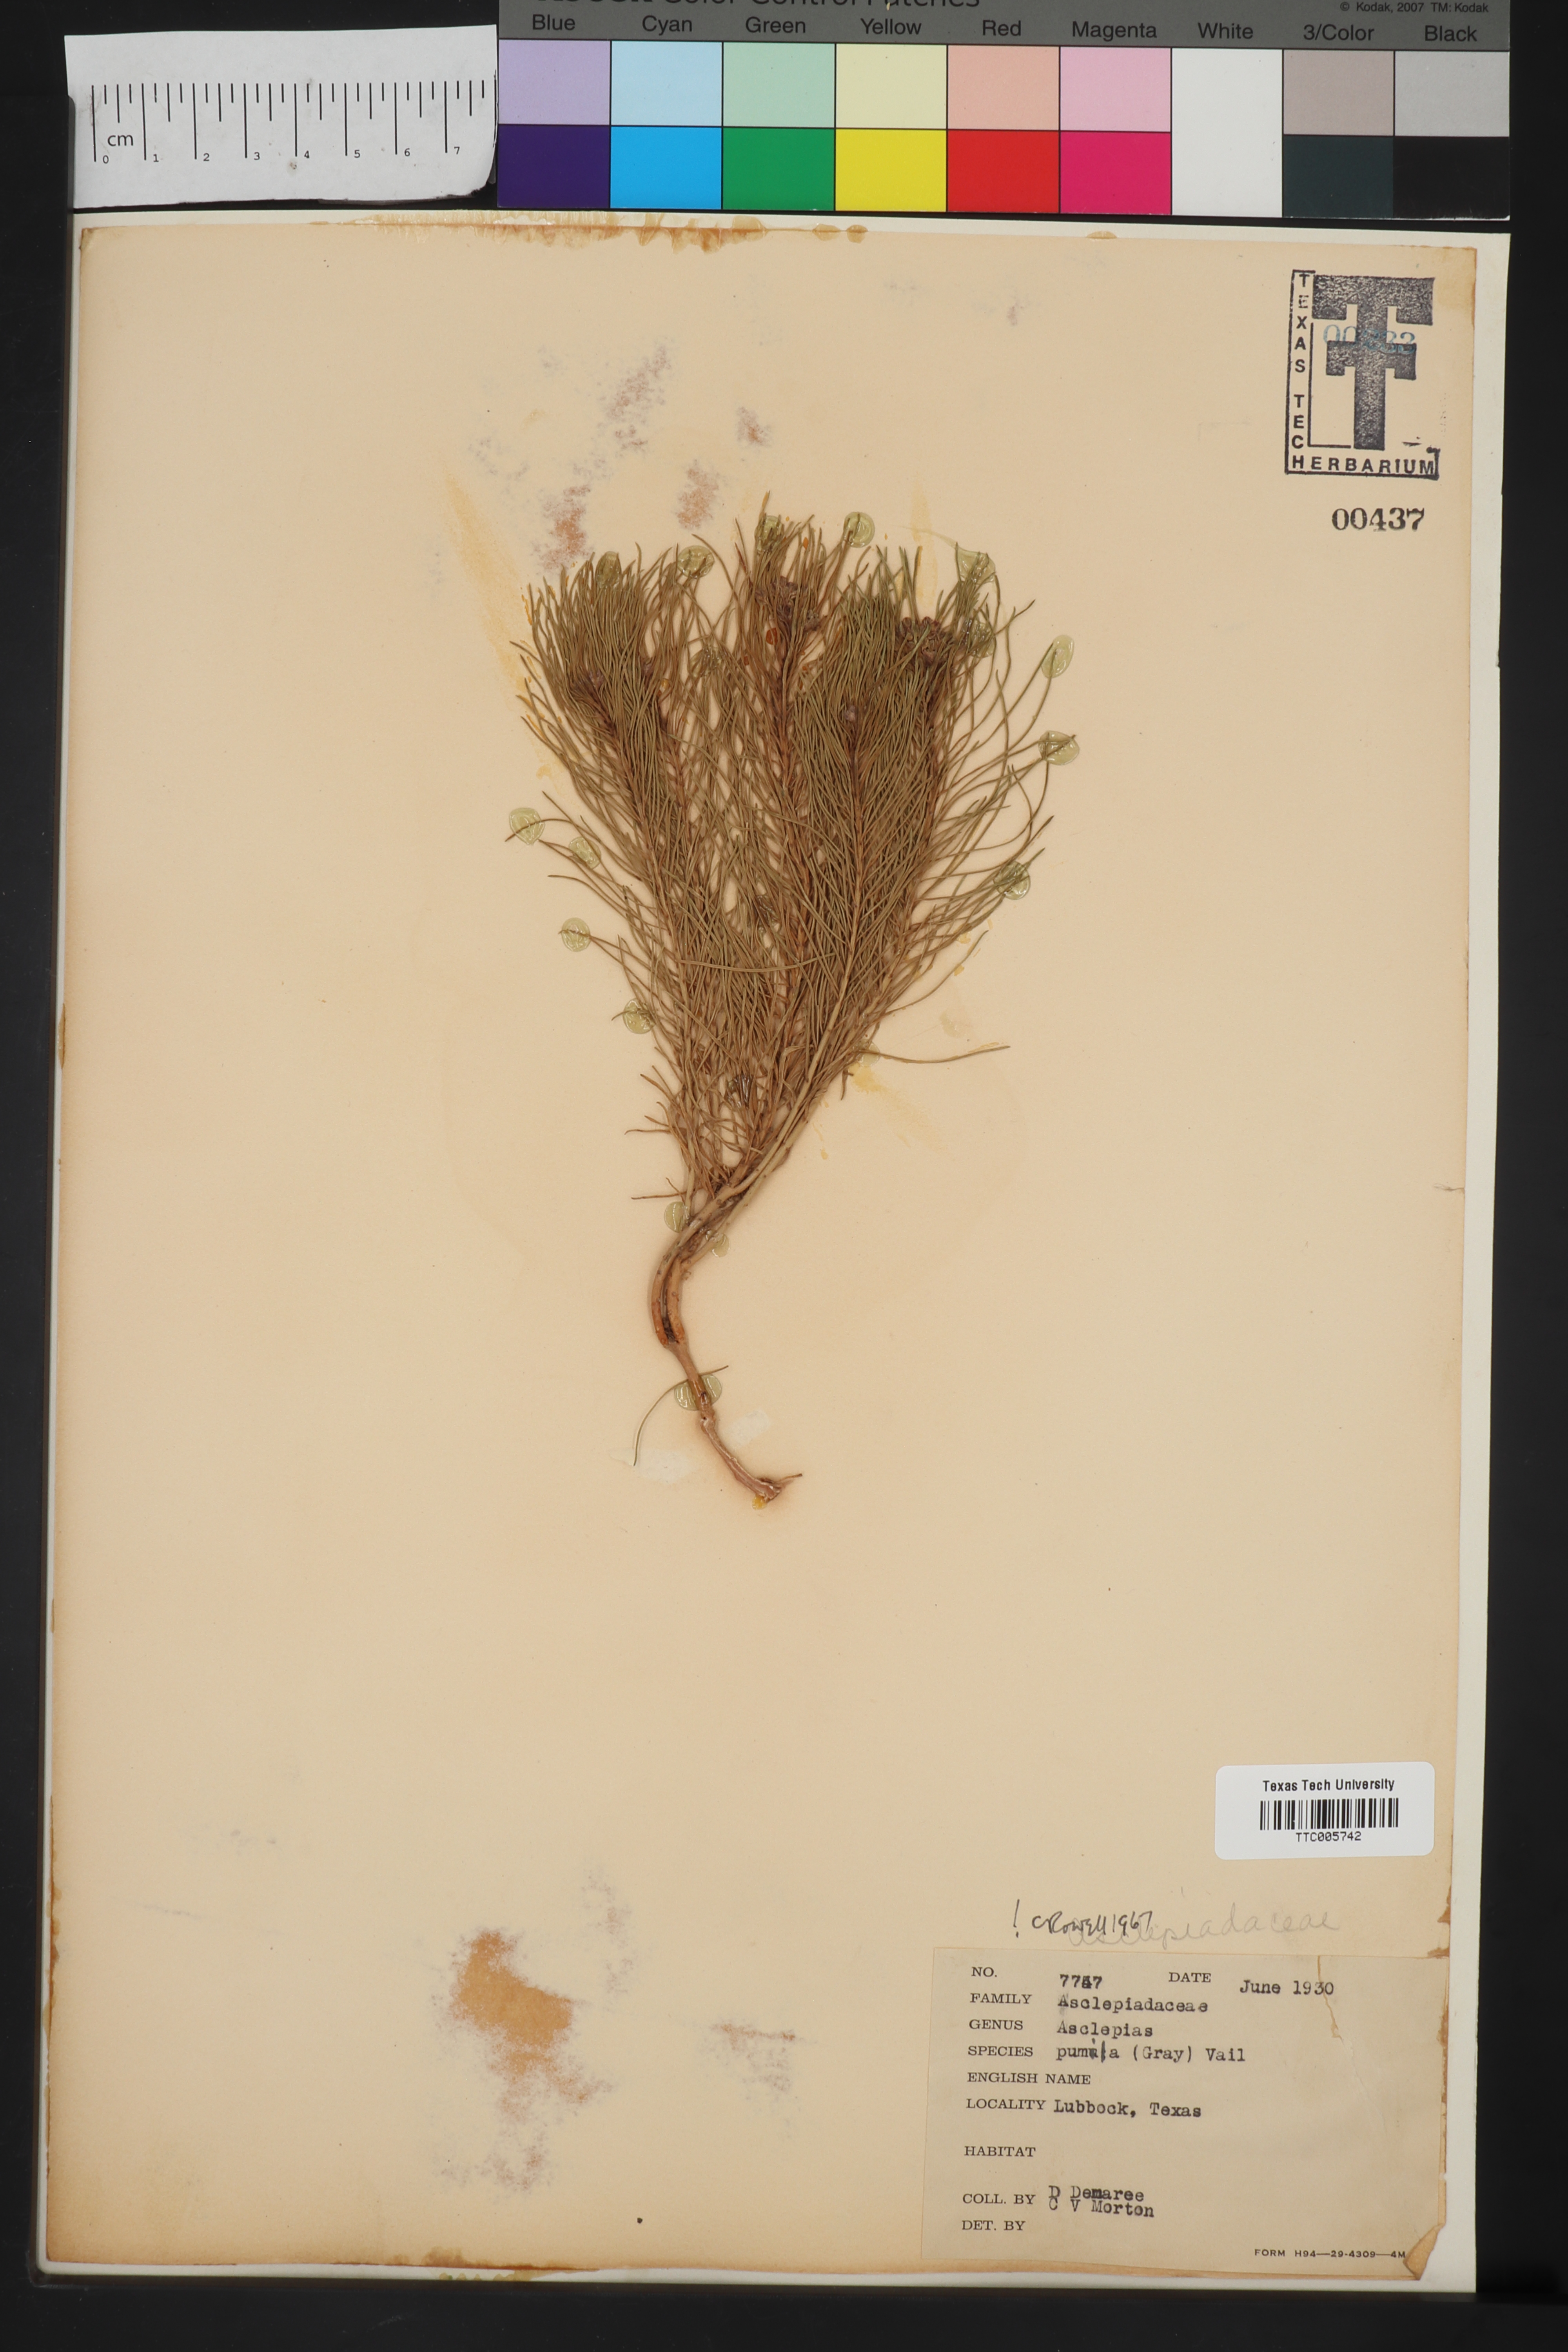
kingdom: Plantae
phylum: Tracheophyta
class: Magnoliopsida
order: Gentianales
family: Apocynaceae
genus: Asclepias
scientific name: Asclepias pumila
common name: Dwarf milkweed
